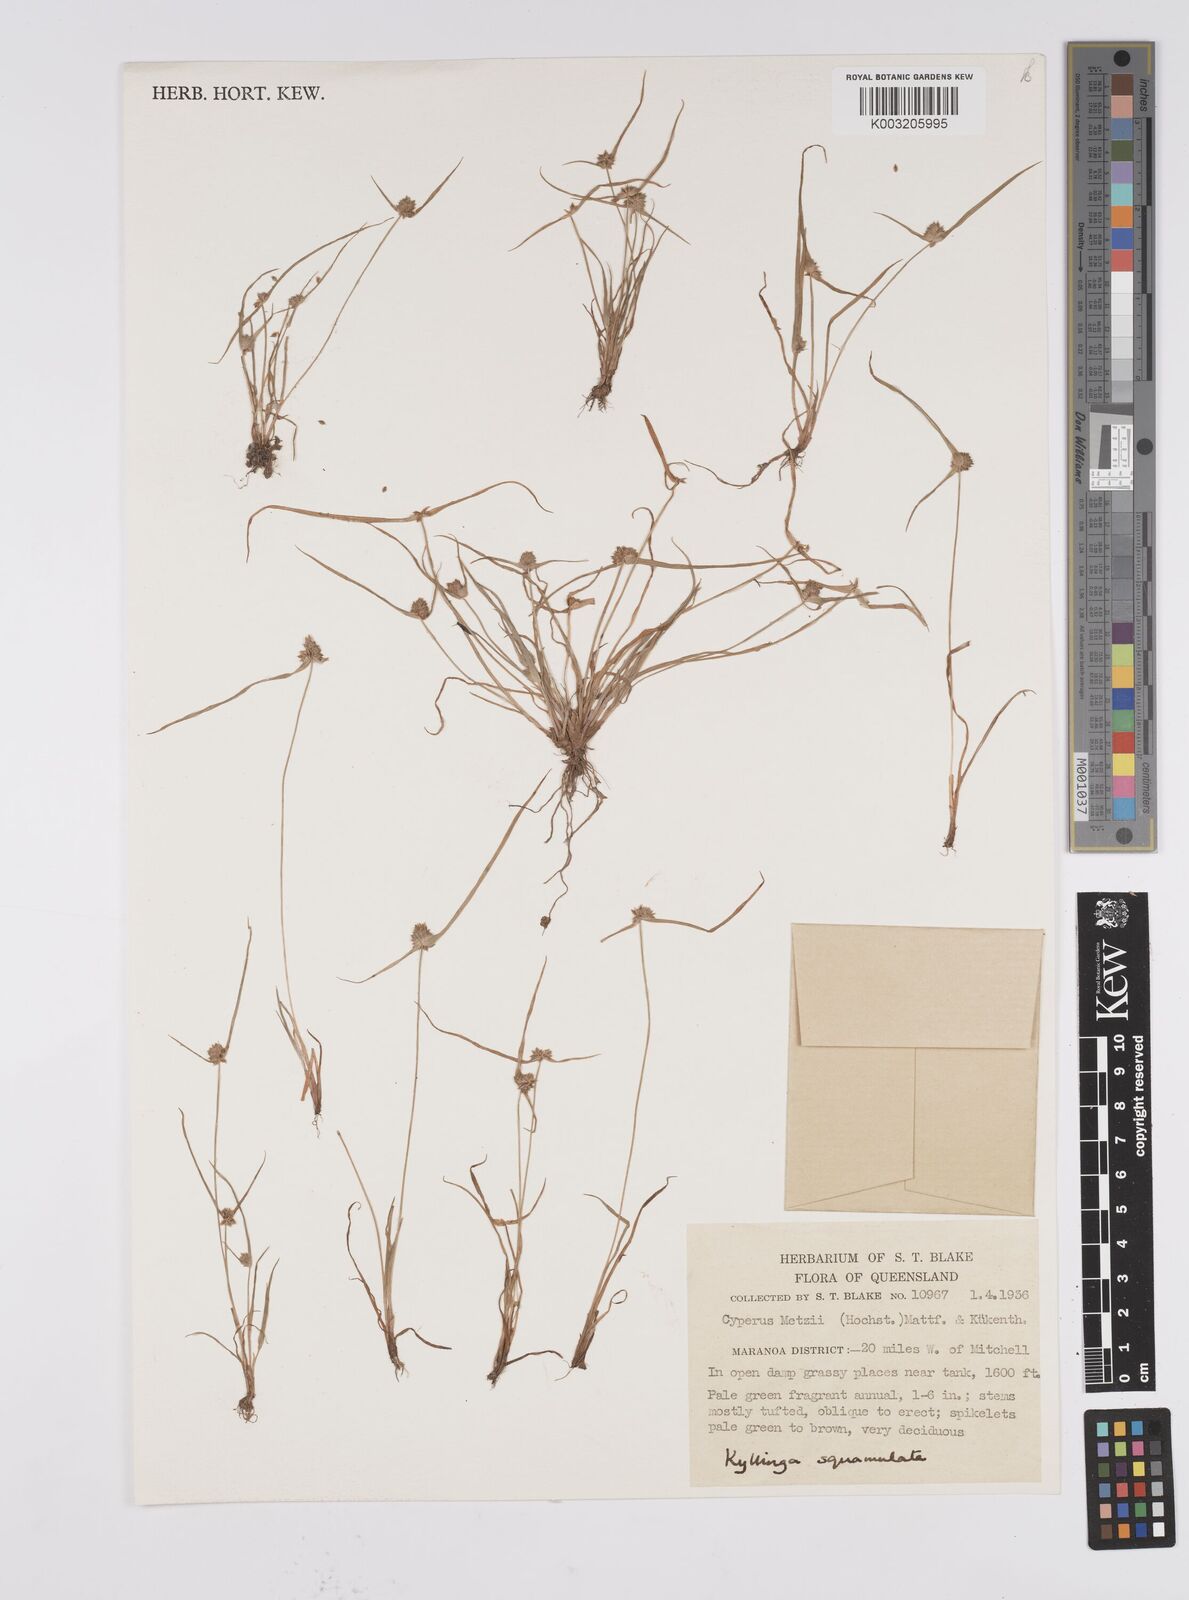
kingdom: Plantae
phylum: Tracheophyta
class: Liliopsida
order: Poales
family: Cyperaceae
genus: Cyperus
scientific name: Cyperus distans
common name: Slender cyperus
